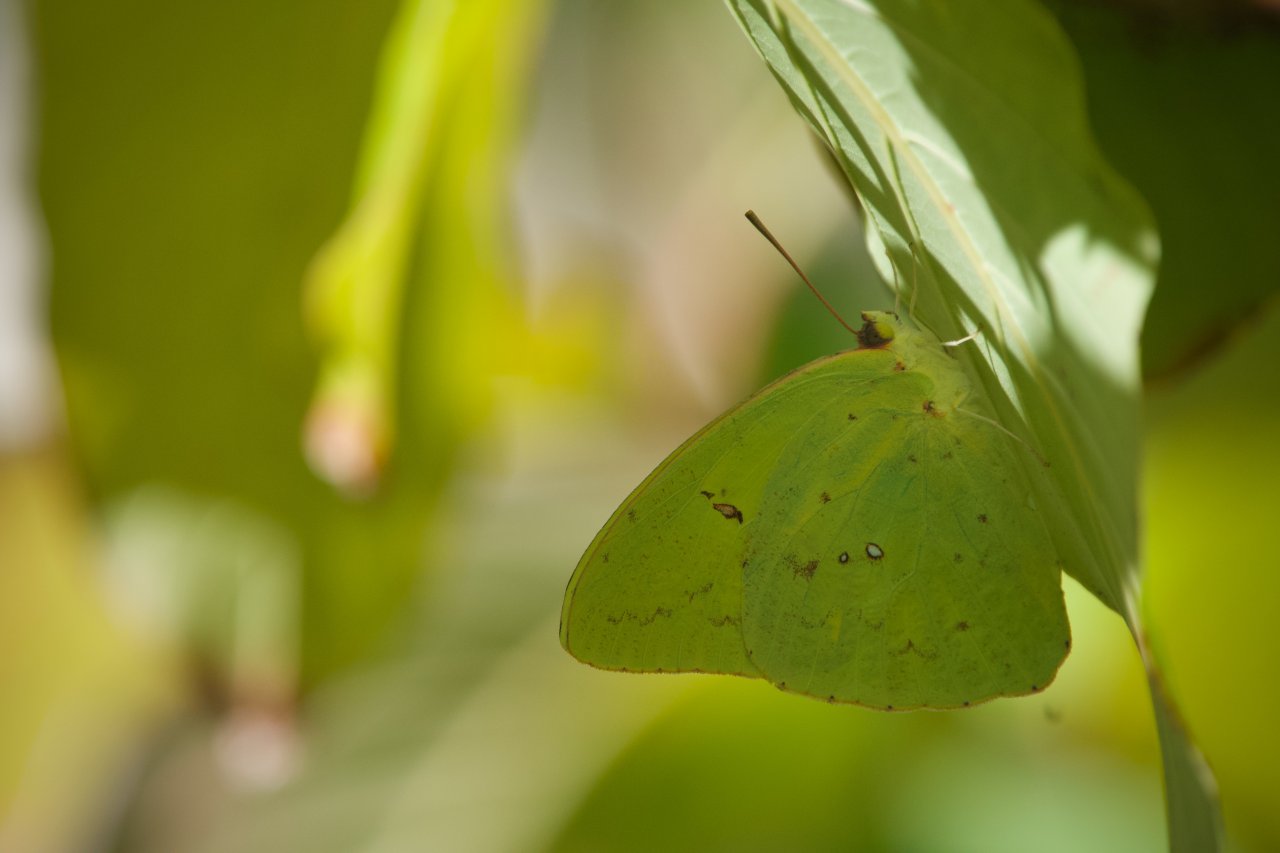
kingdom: Animalia
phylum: Arthropoda
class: Insecta
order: Lepidoptera
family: Pieridae
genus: Phoebis
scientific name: Phoebis sennae
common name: Cloudless Sulphur
